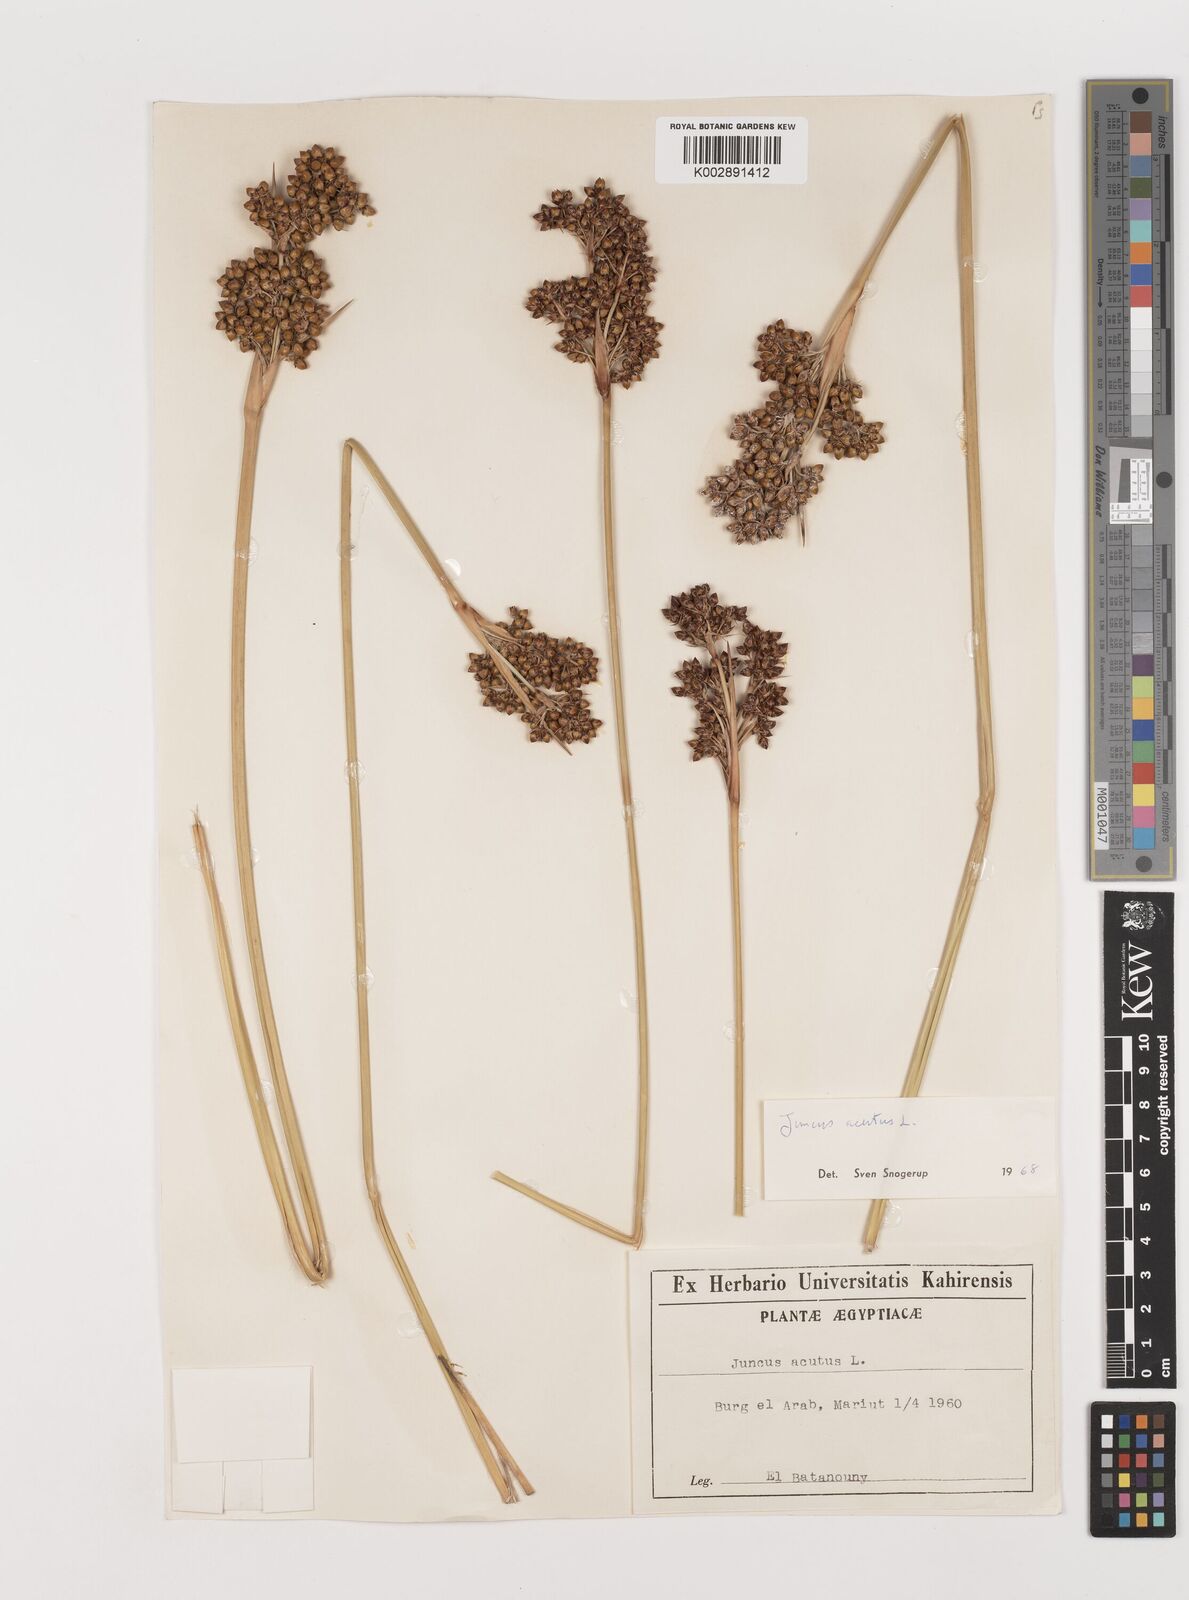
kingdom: Plantae
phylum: Tracheophyta
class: Liliopsida
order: Poales
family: Juncaceae
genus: Juncus
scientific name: Juncus acutus
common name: Sharp rush
